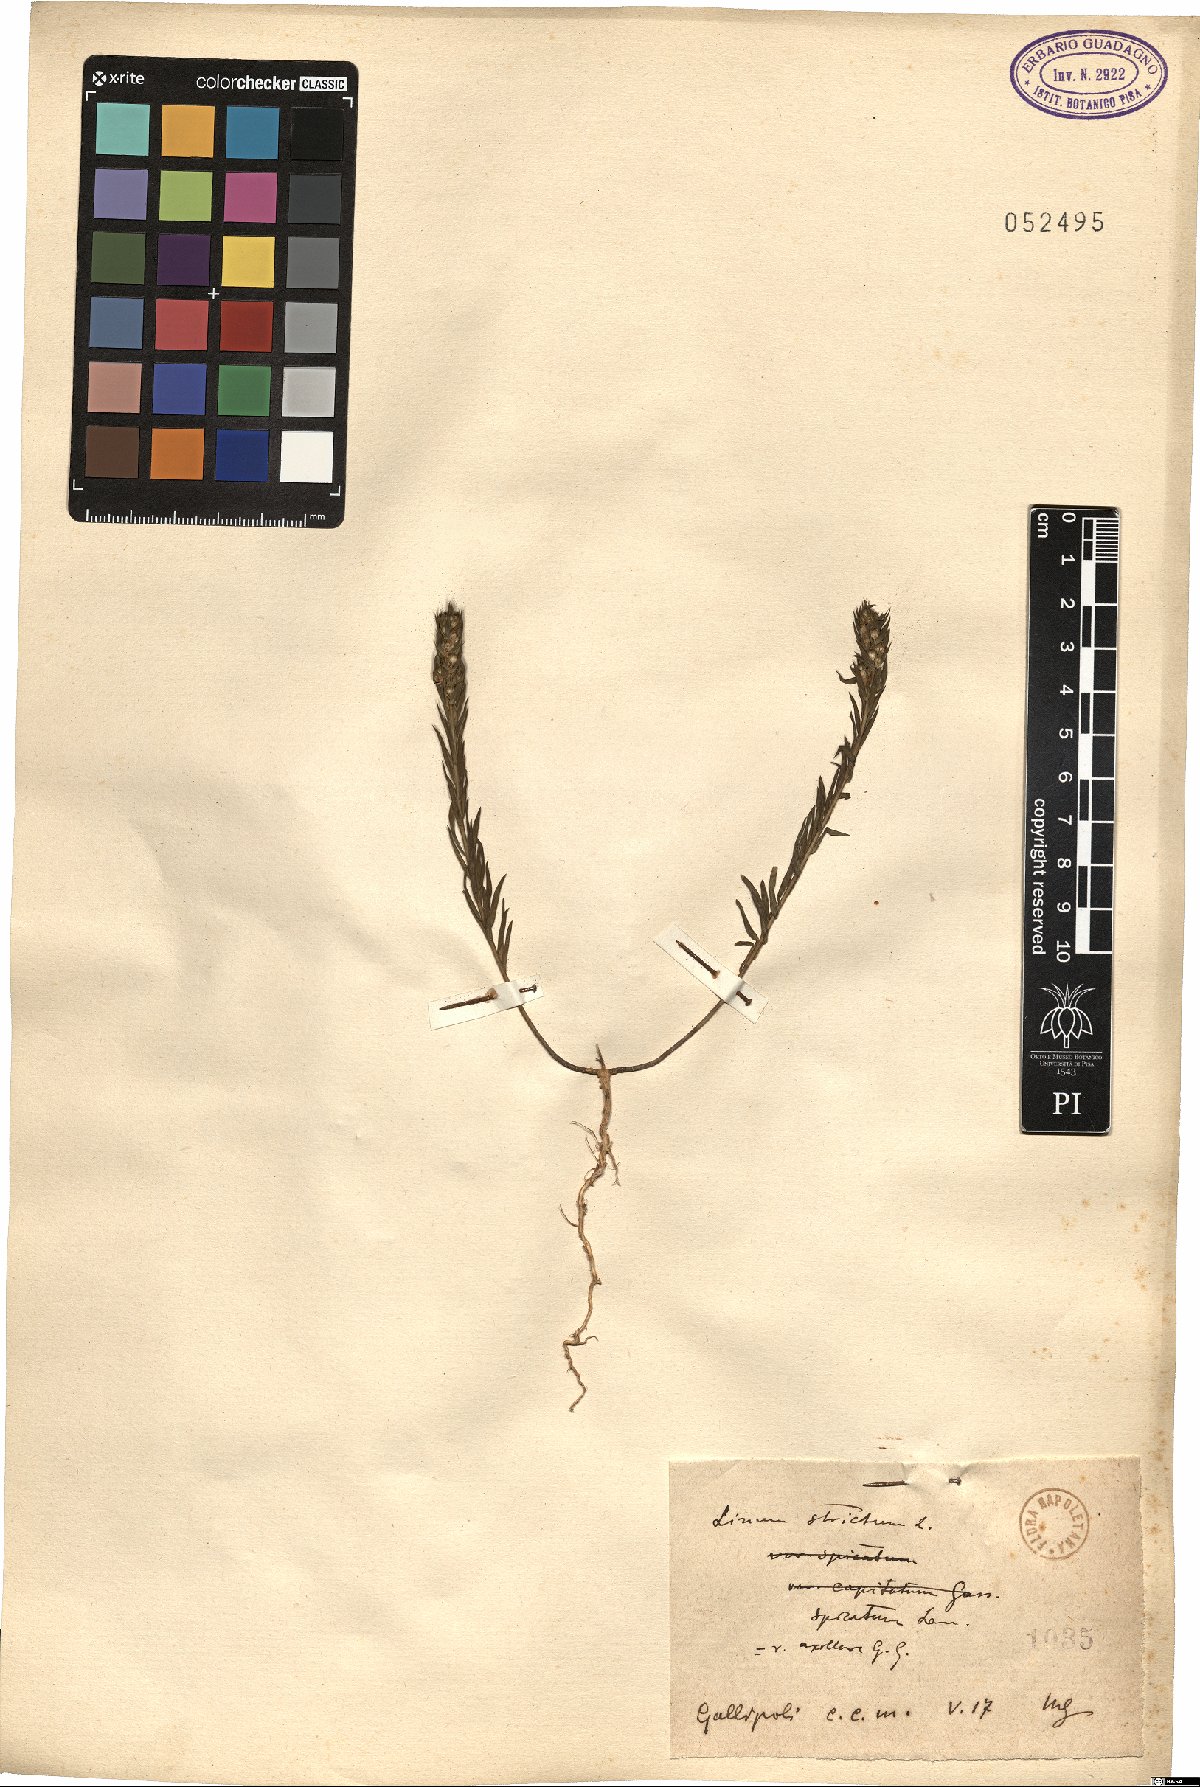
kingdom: Plantae
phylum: Tracheophyta
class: Magnoliopsida
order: Malpighiales
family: Linaceae
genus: Linum
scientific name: Linum strictum
